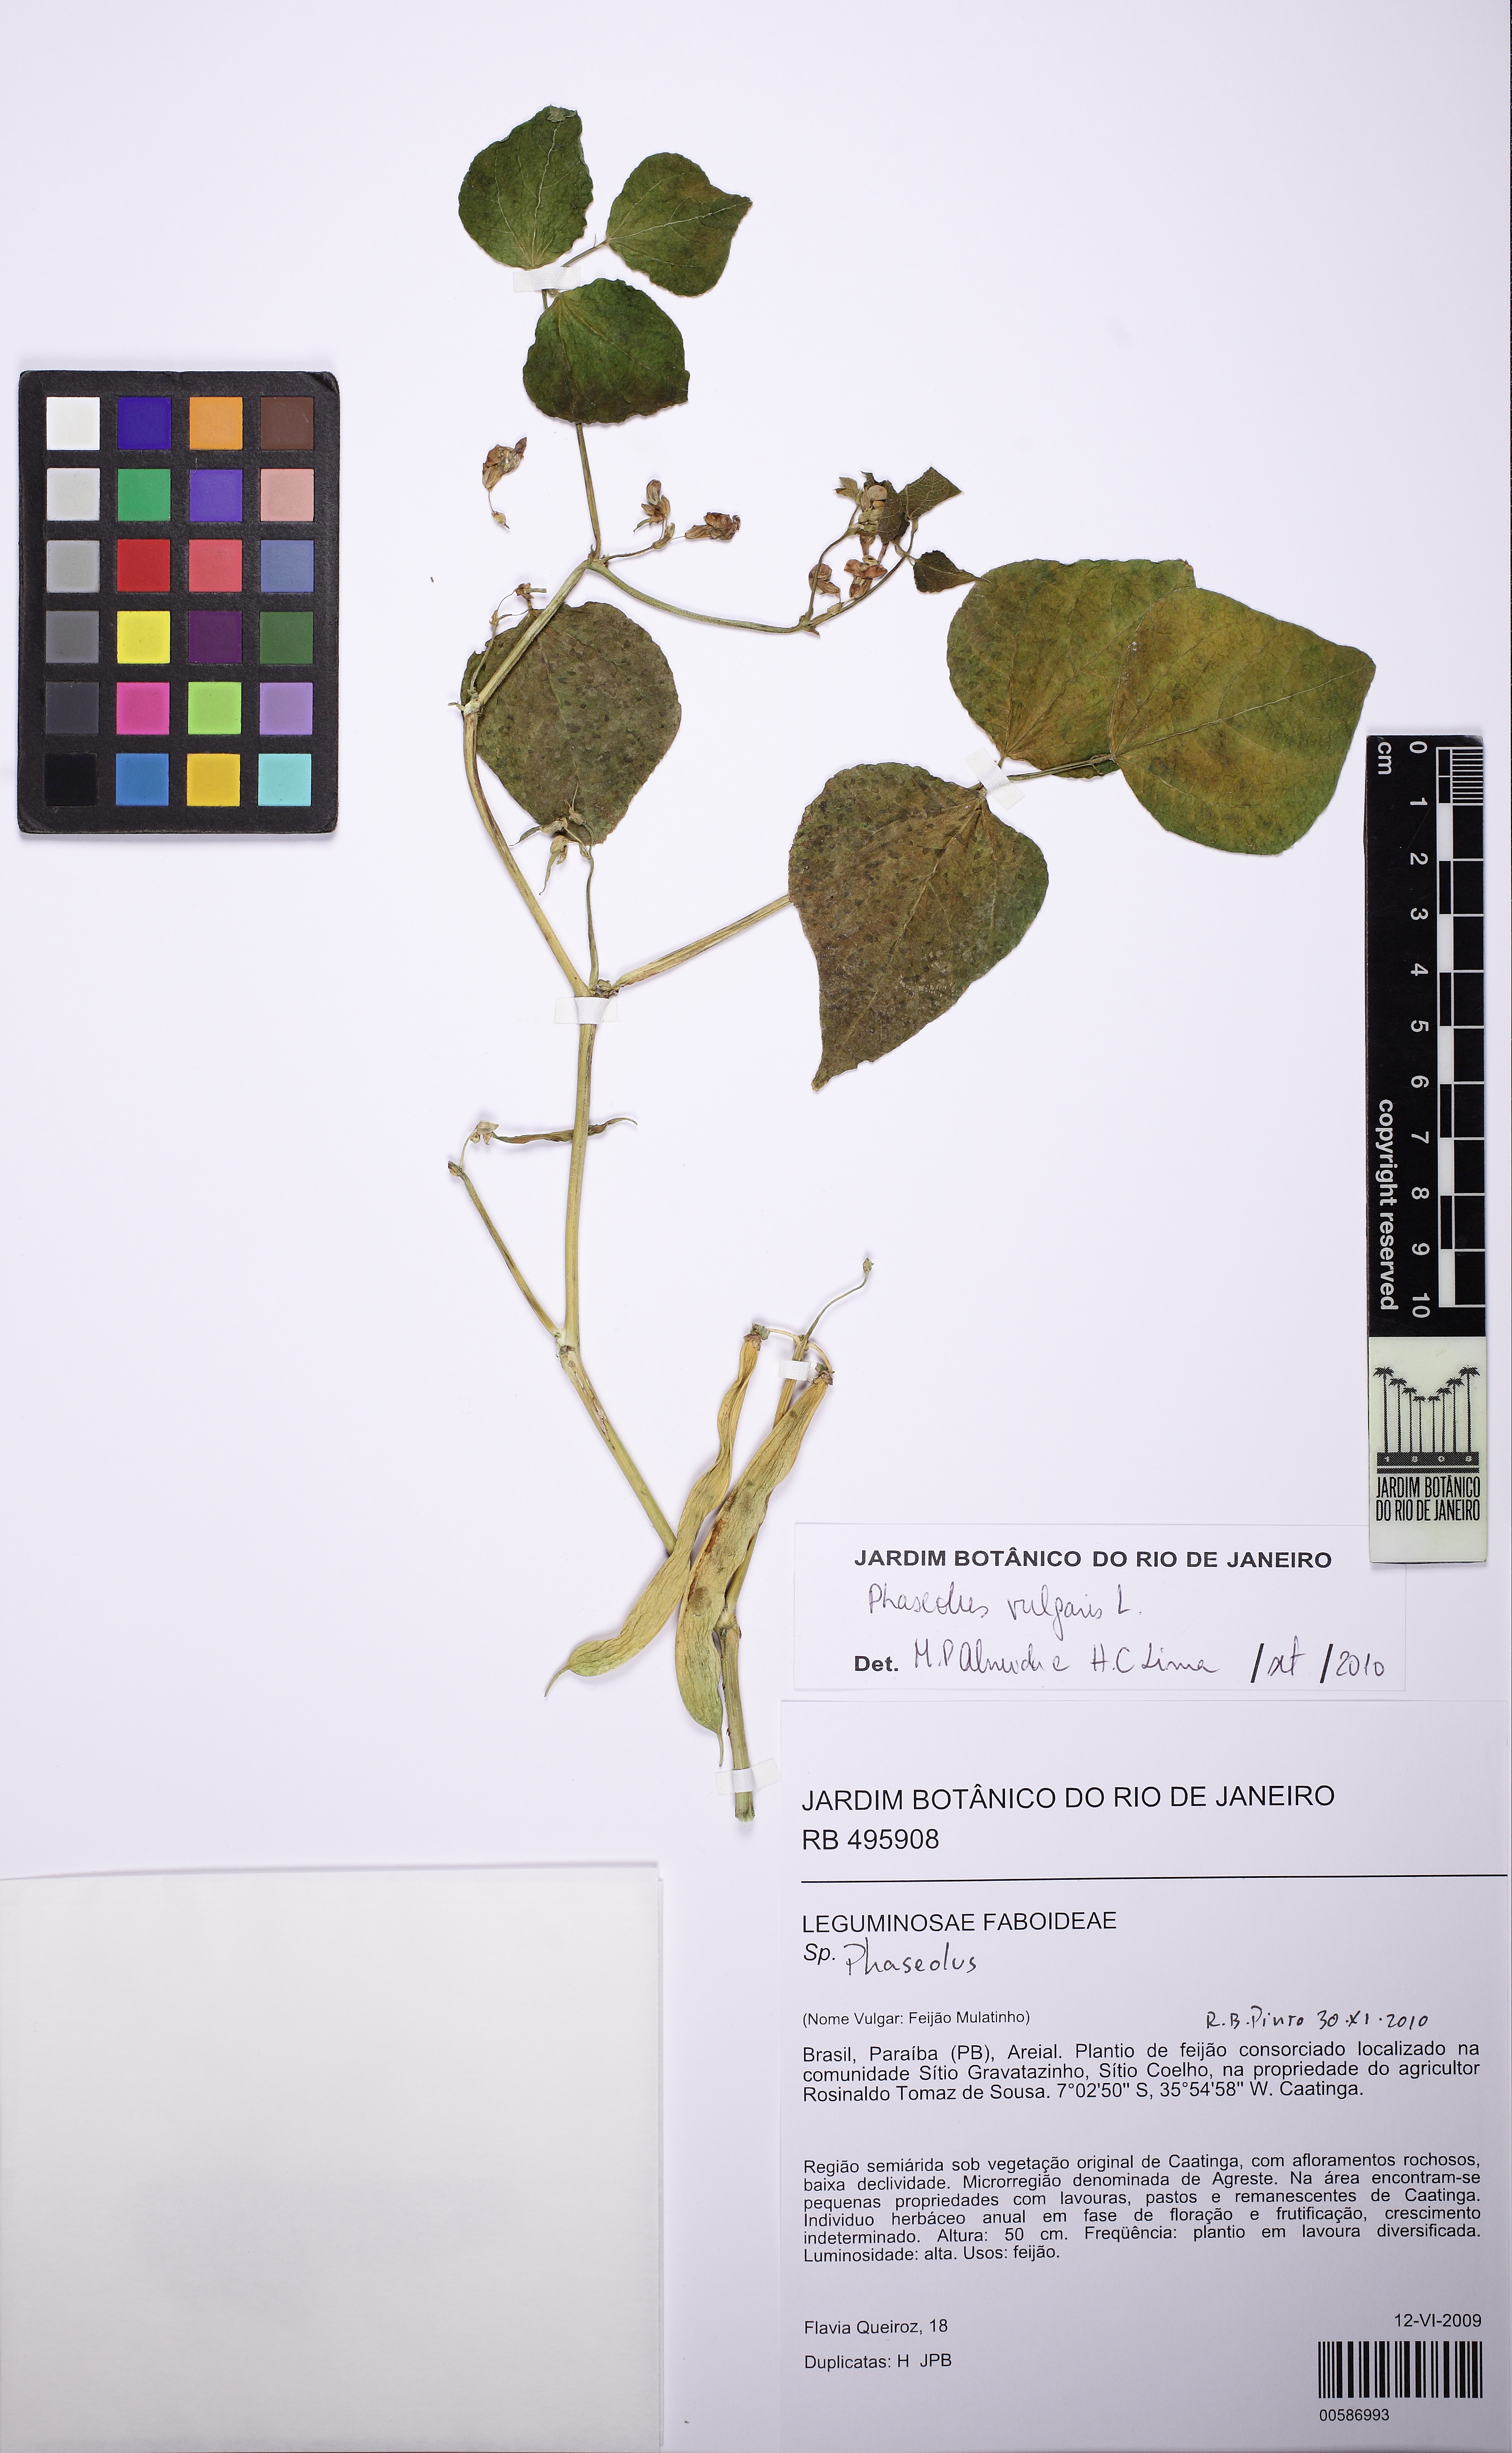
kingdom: Plantae
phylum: Tracheophyta
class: Magnoliopsida
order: Fabales
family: Fabaceae
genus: Phaseolus
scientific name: Phaseolus vulgaris
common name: Bean
